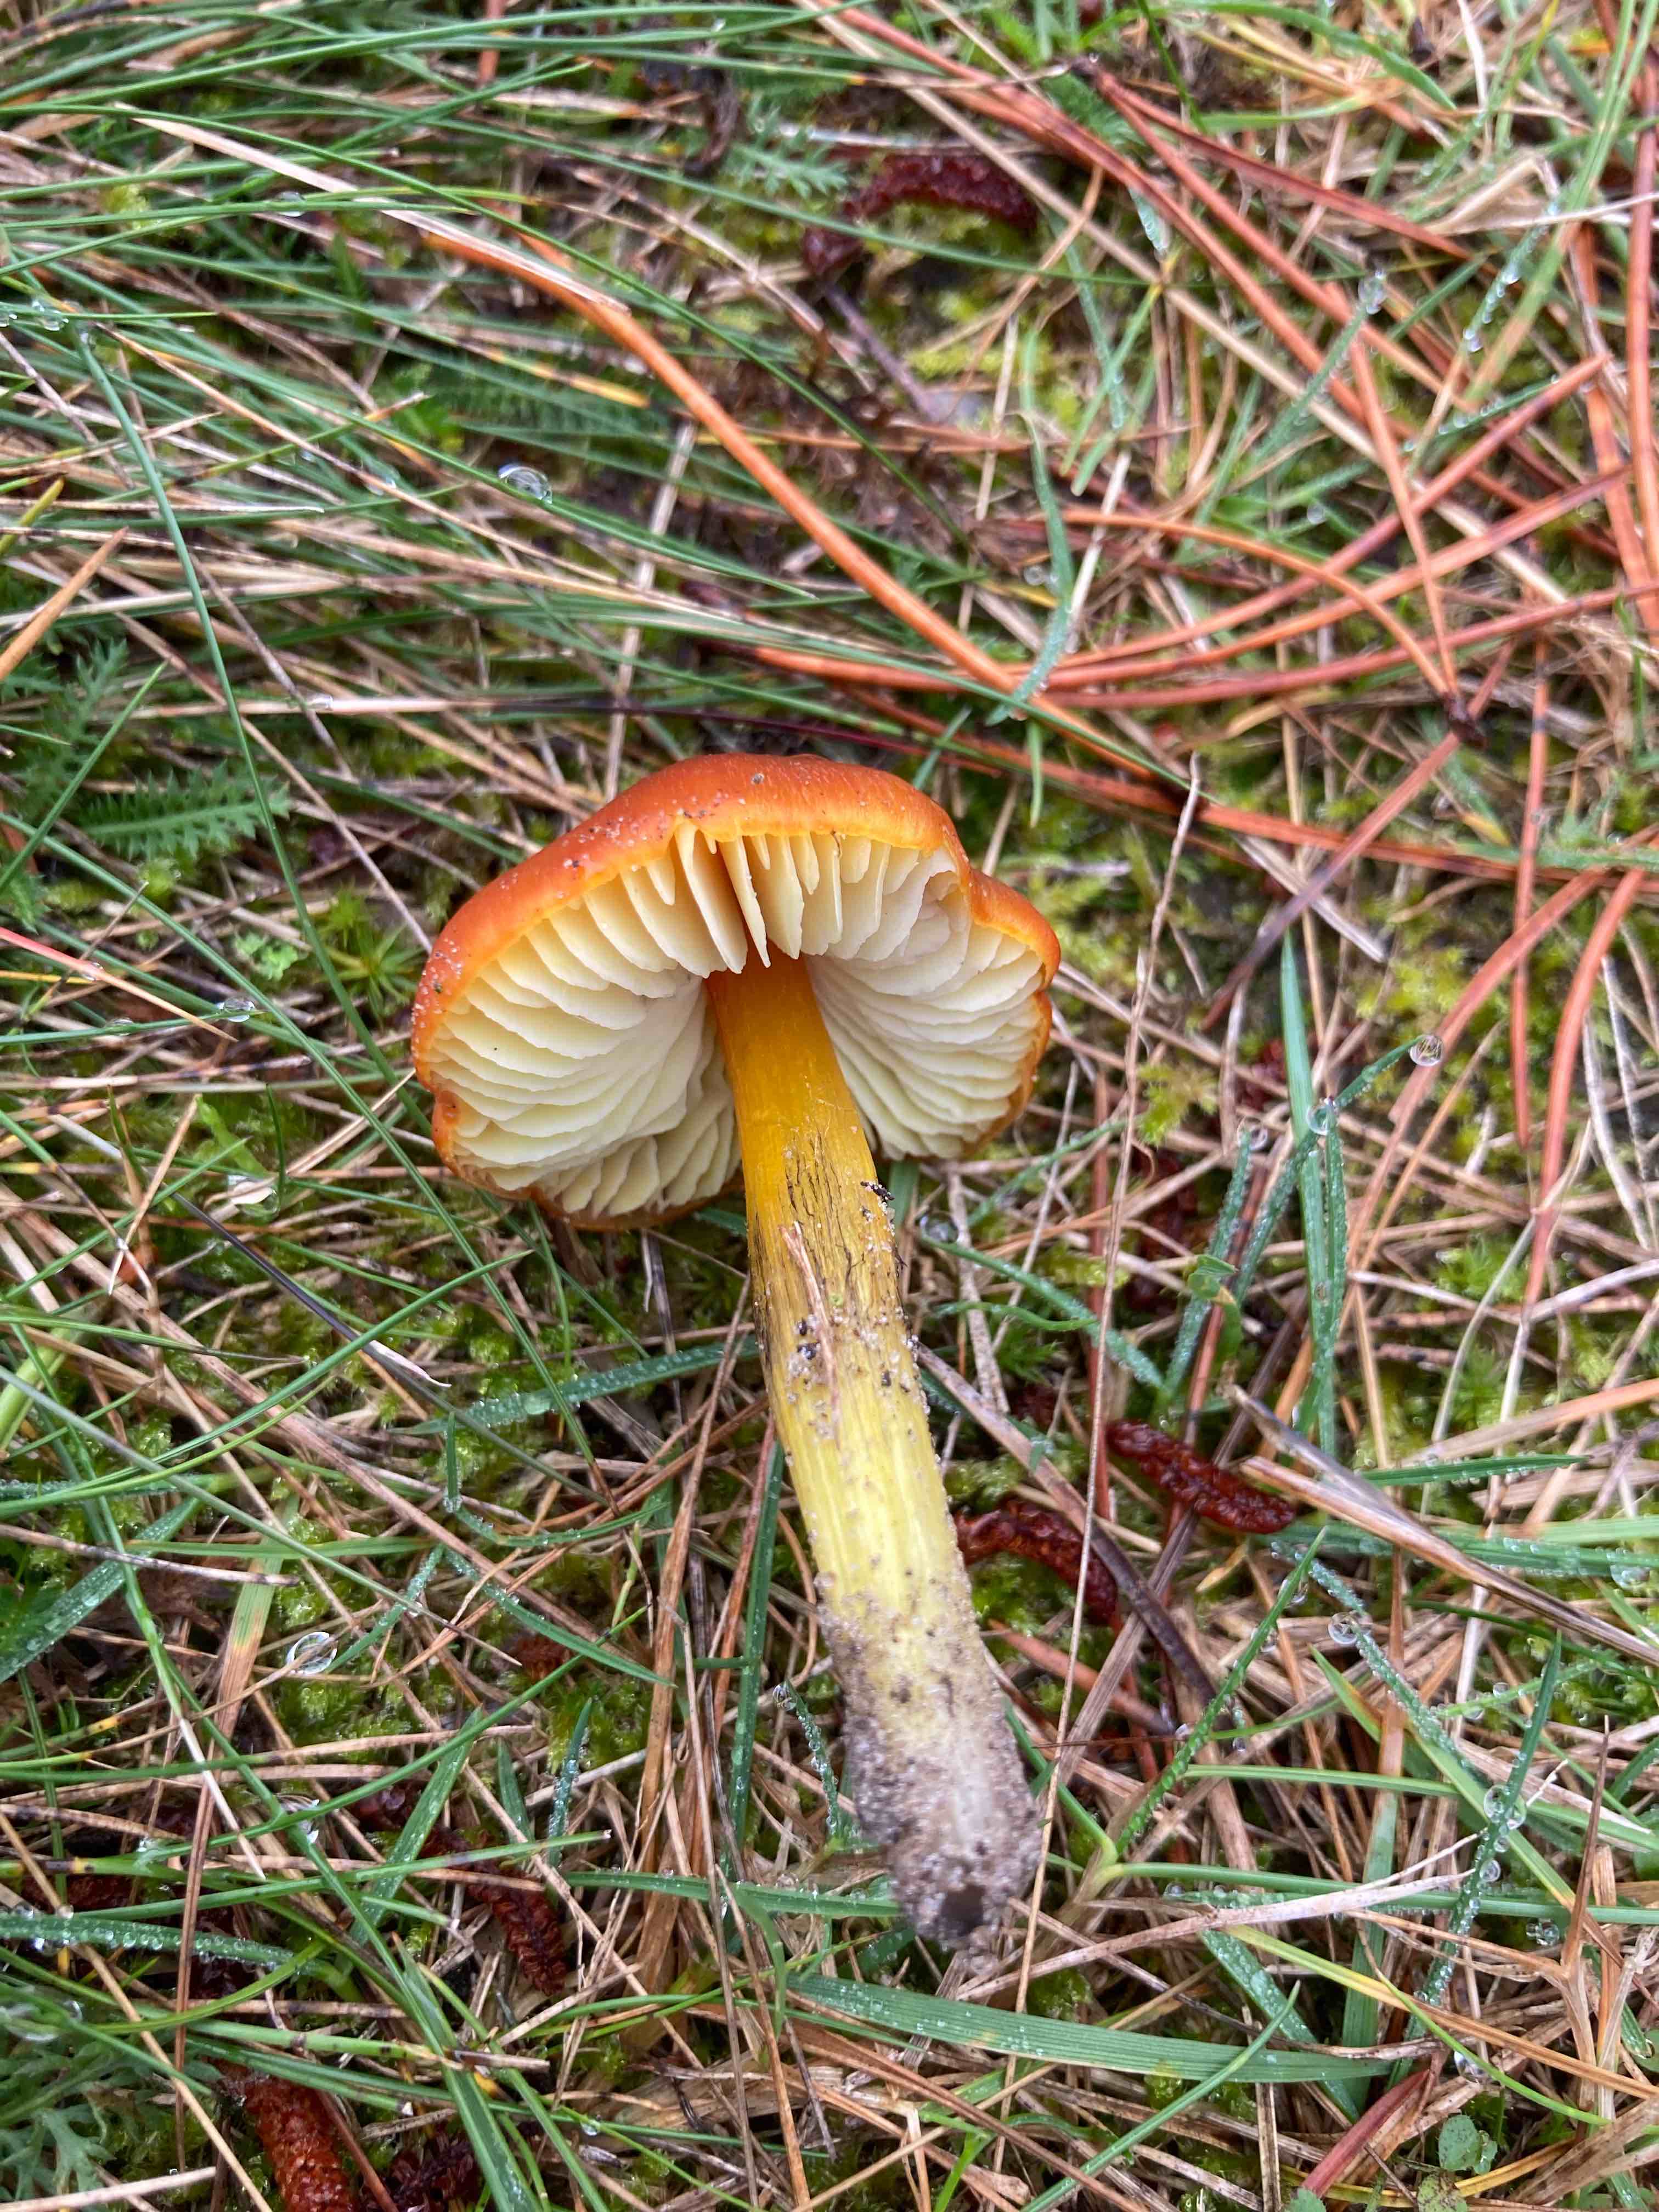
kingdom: Fungi
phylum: Basidiomycota
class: Agaricomycetes
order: Agaricales
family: Hygrophoraceae
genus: Hygrocybe
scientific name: Hygrocybe conica
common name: kegle-vokshat
